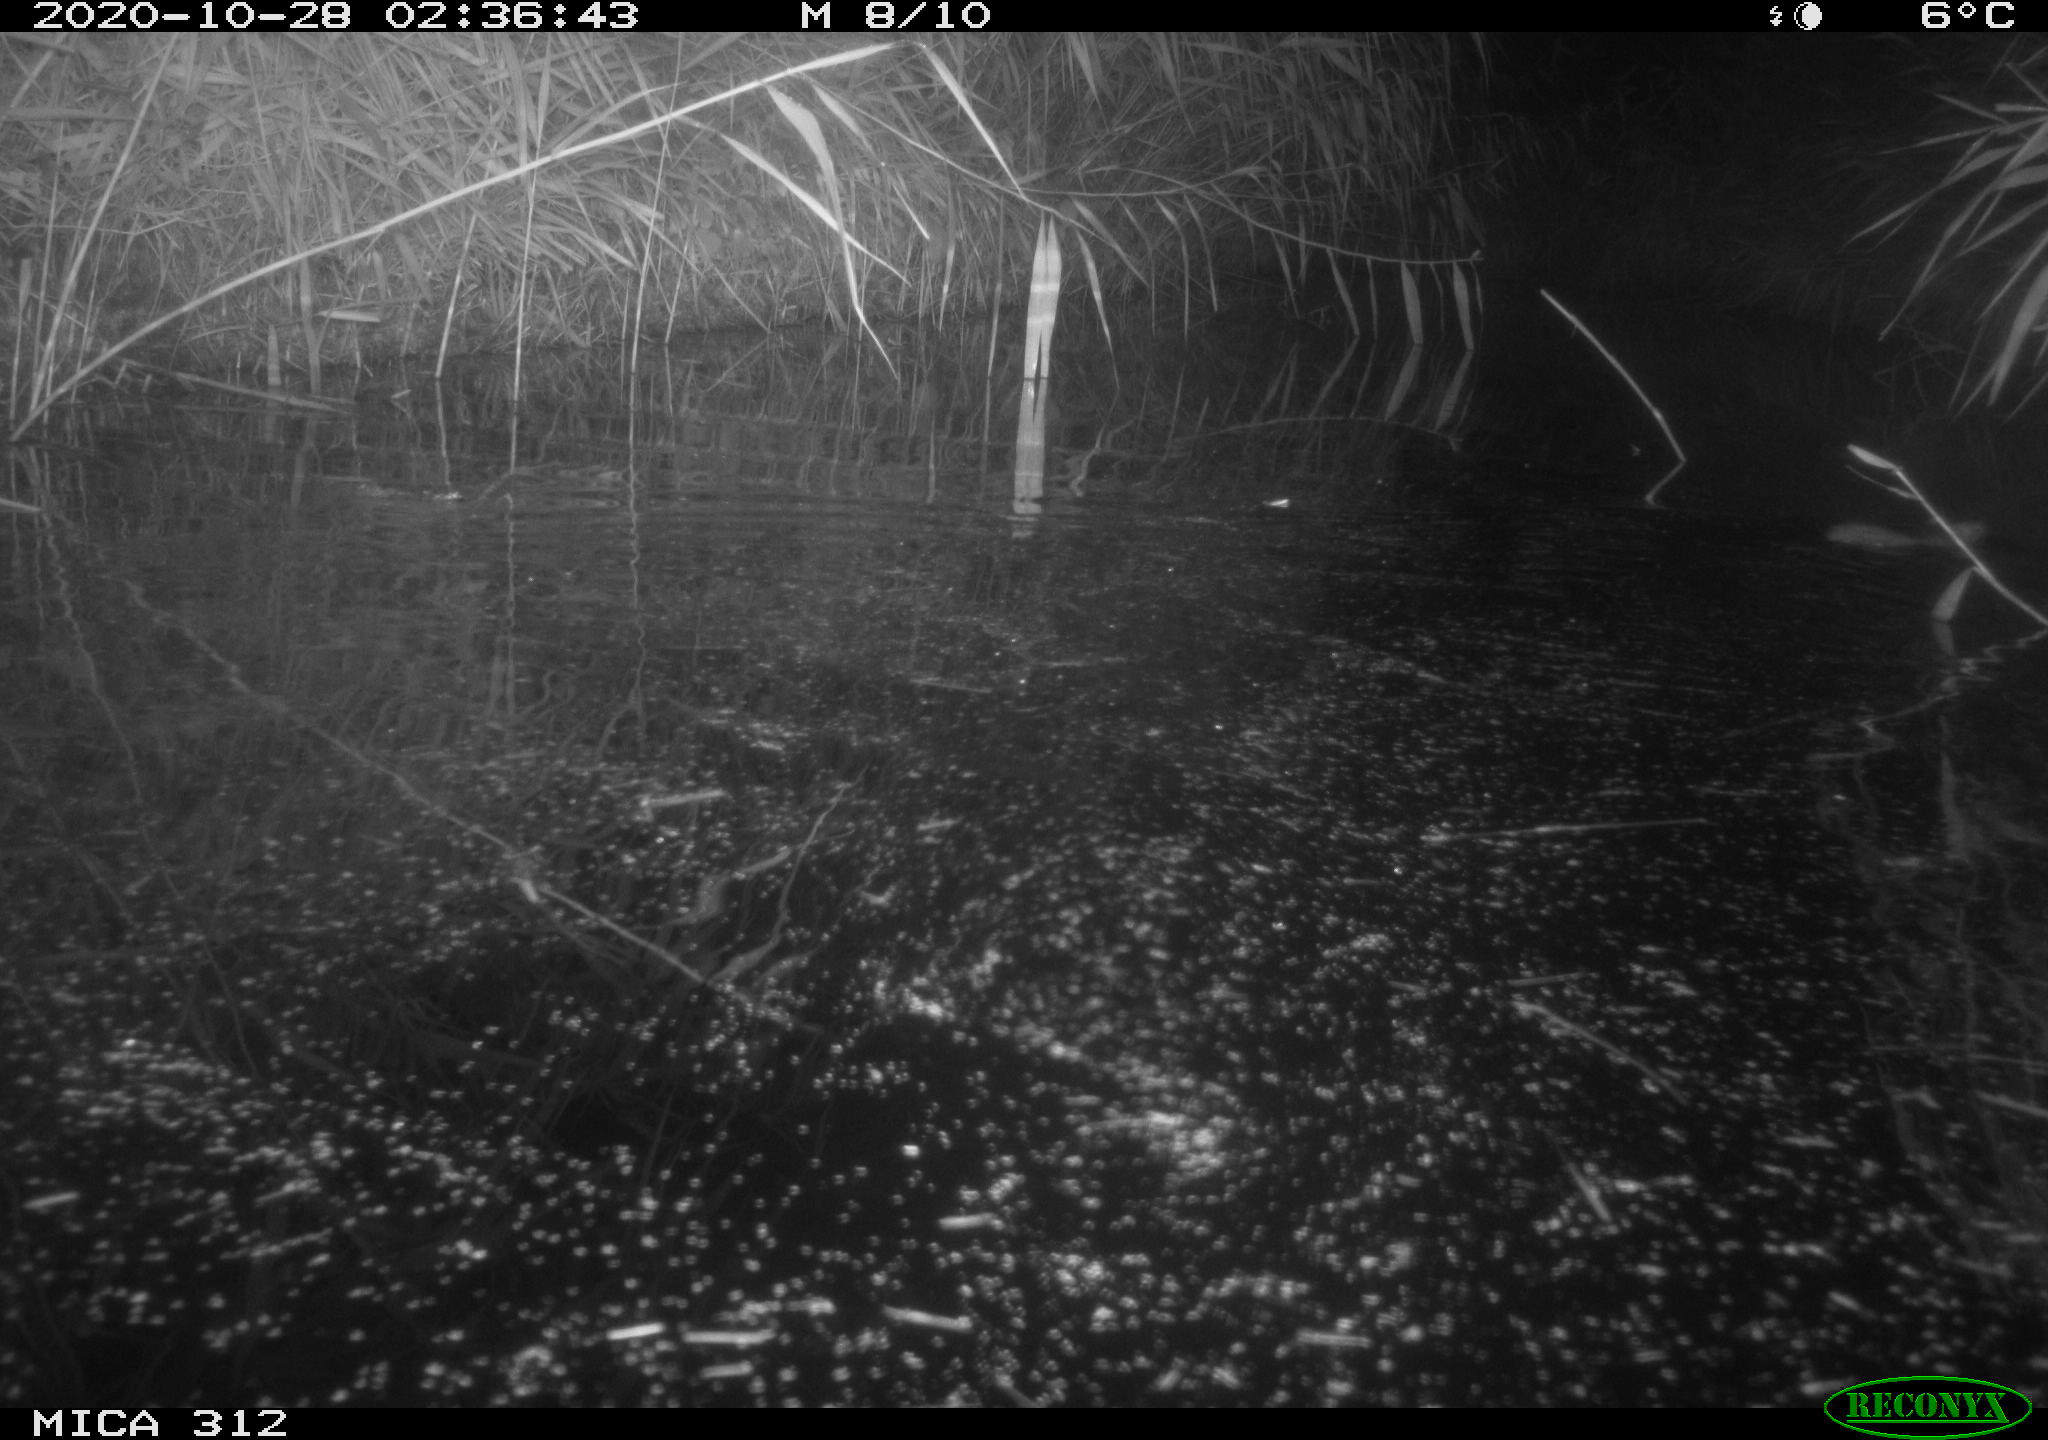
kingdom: Animalia
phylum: Chordata
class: Mammalia
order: Rodentia
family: Muridae
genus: Rattus
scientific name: Rattus norvegicus
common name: Brown rat
